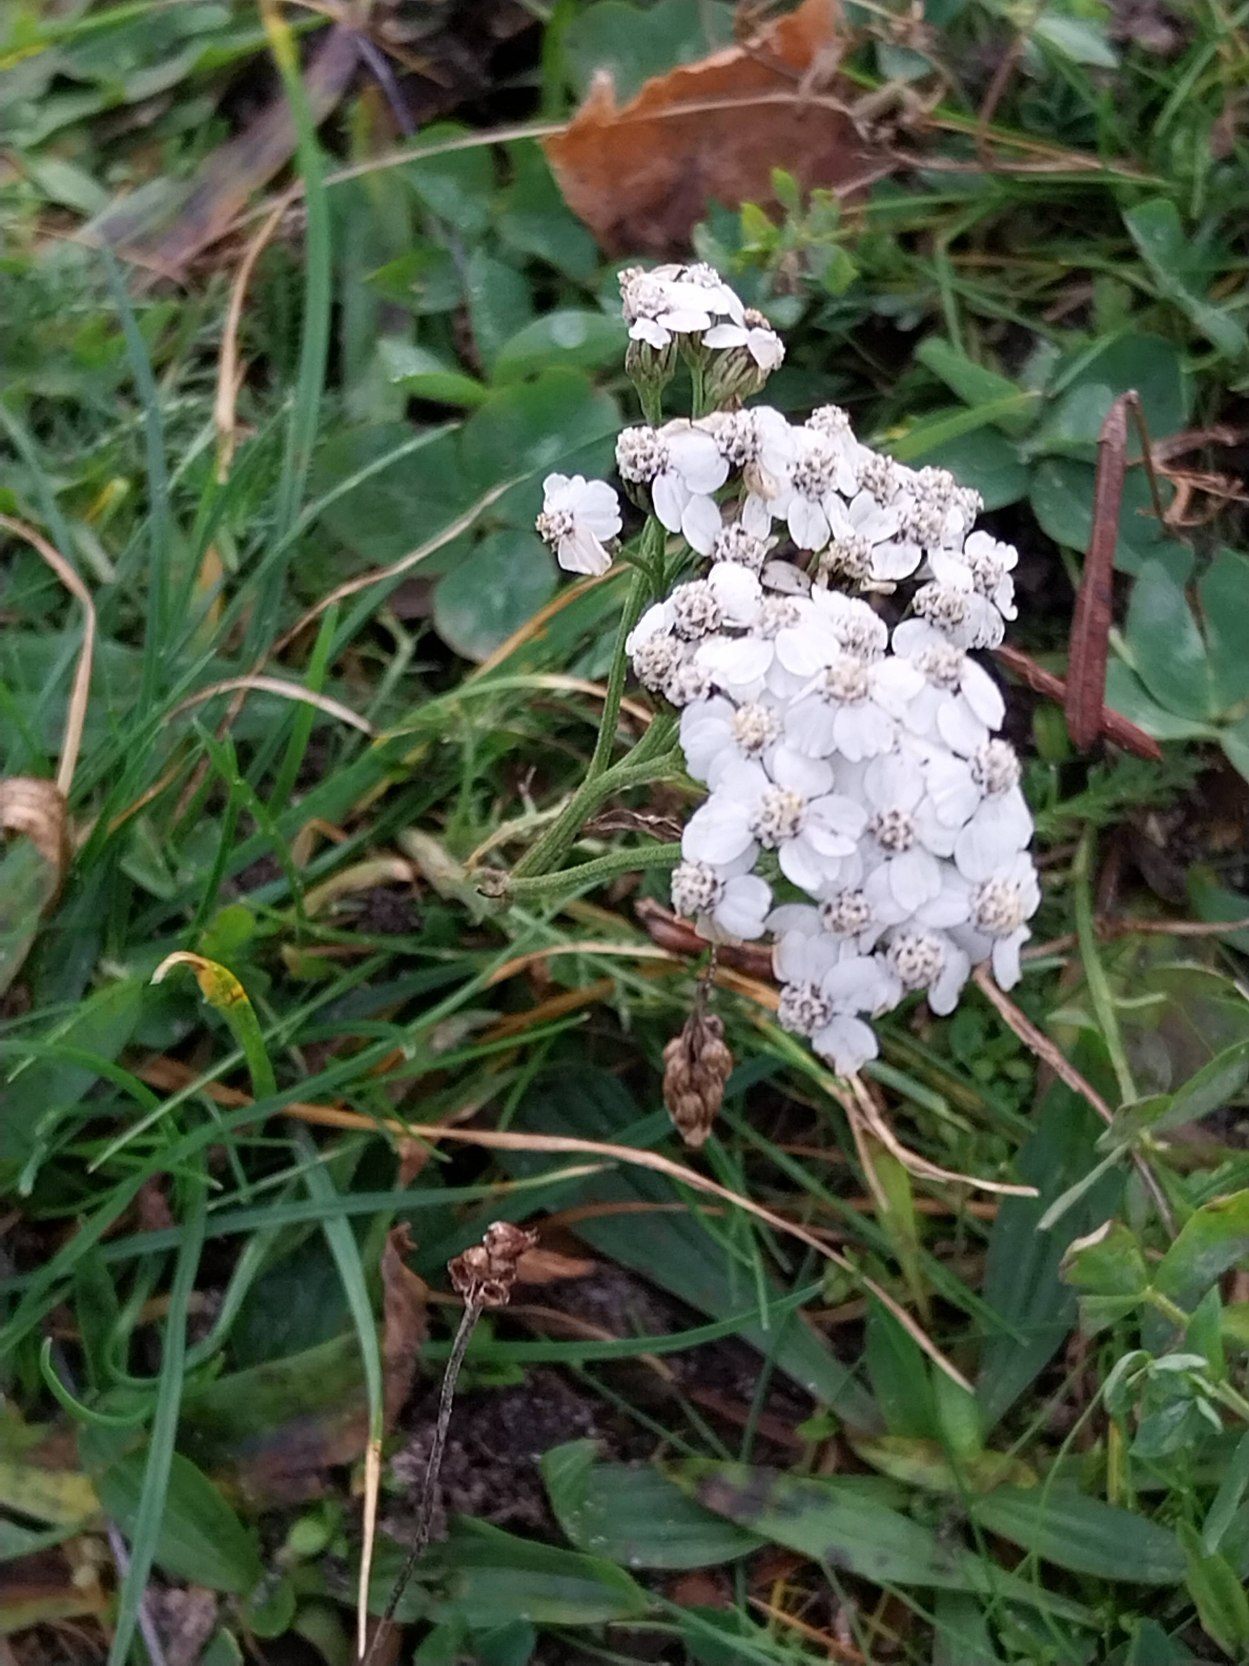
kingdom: Plantae
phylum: Tracheophyta
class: Magnoliopsida
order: Asterales
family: Asteraceae
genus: Achillea
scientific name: Achillea millefolium
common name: Almindelig røllike
